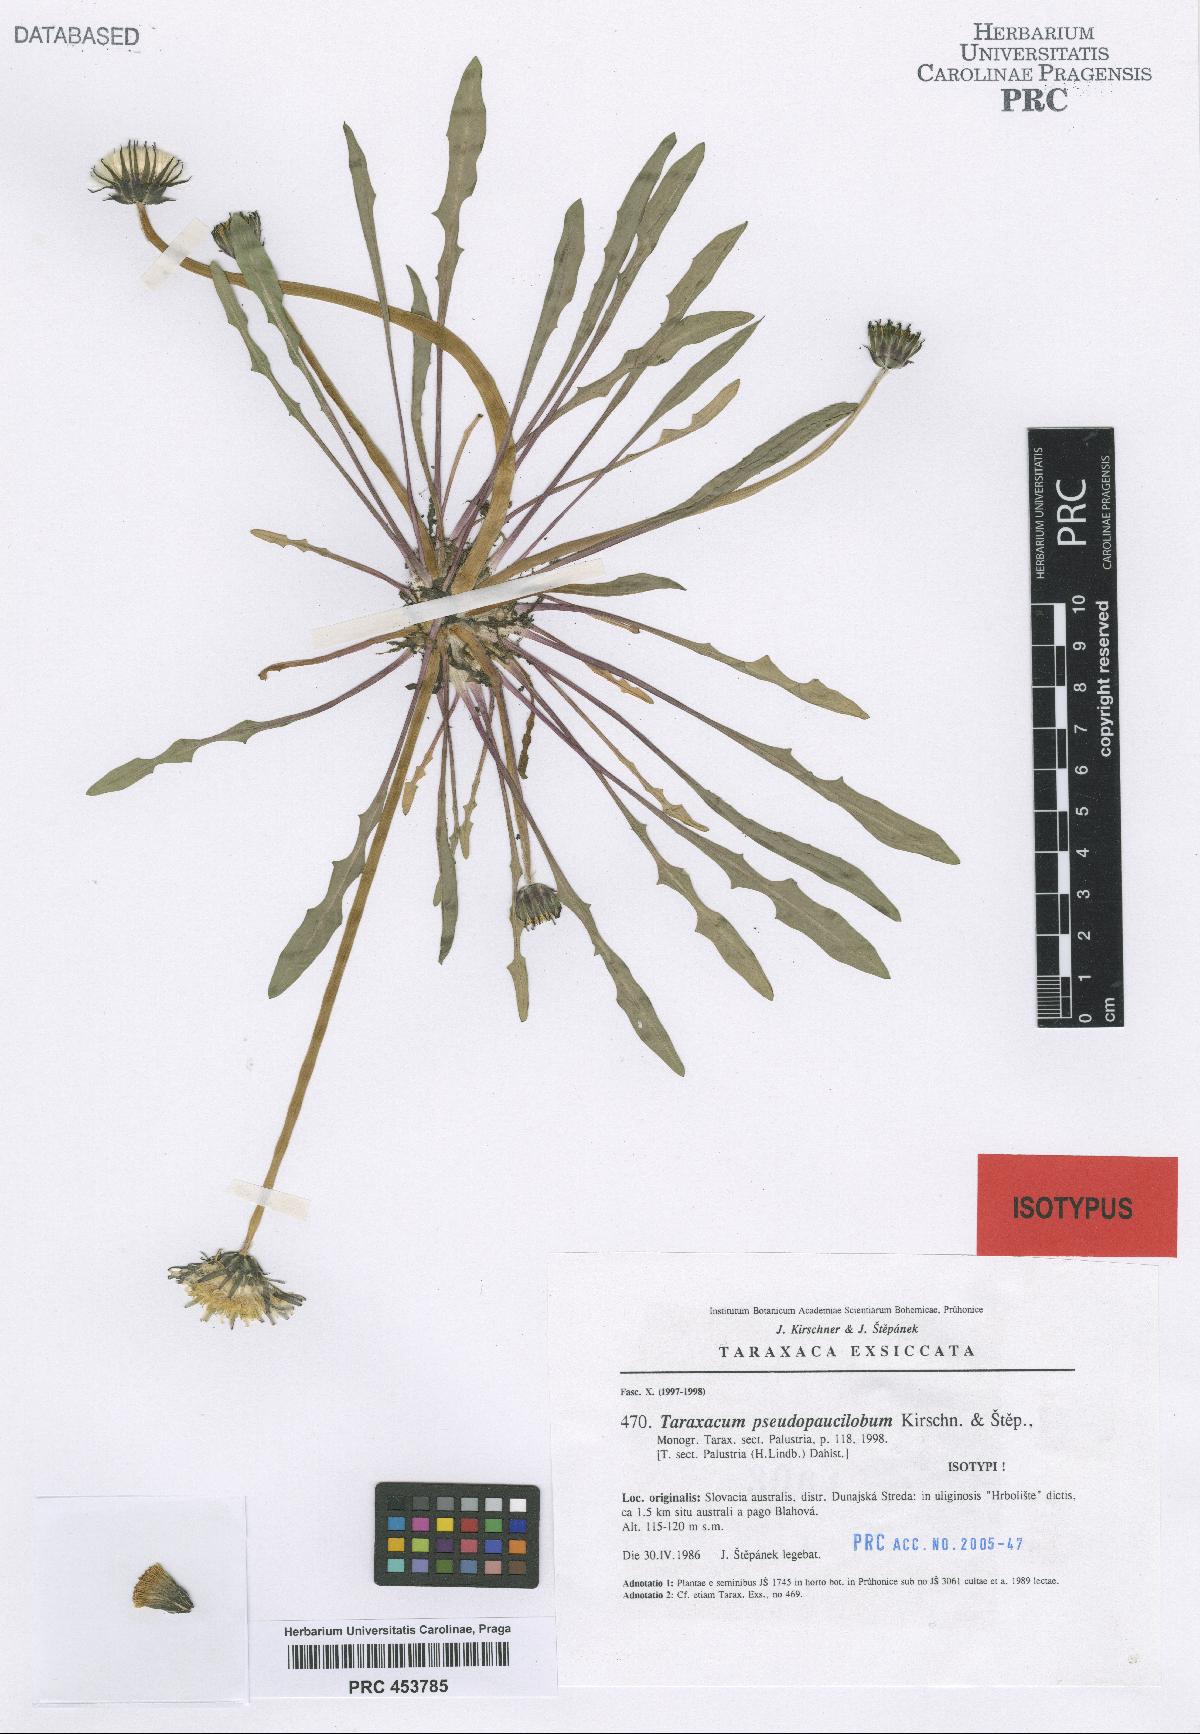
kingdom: Plantae
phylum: Tracheophyta
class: Magnoliopsida
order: Asterales
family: Asteraceae
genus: Taraxacum
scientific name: Taraxacum pseudopaucilobum
